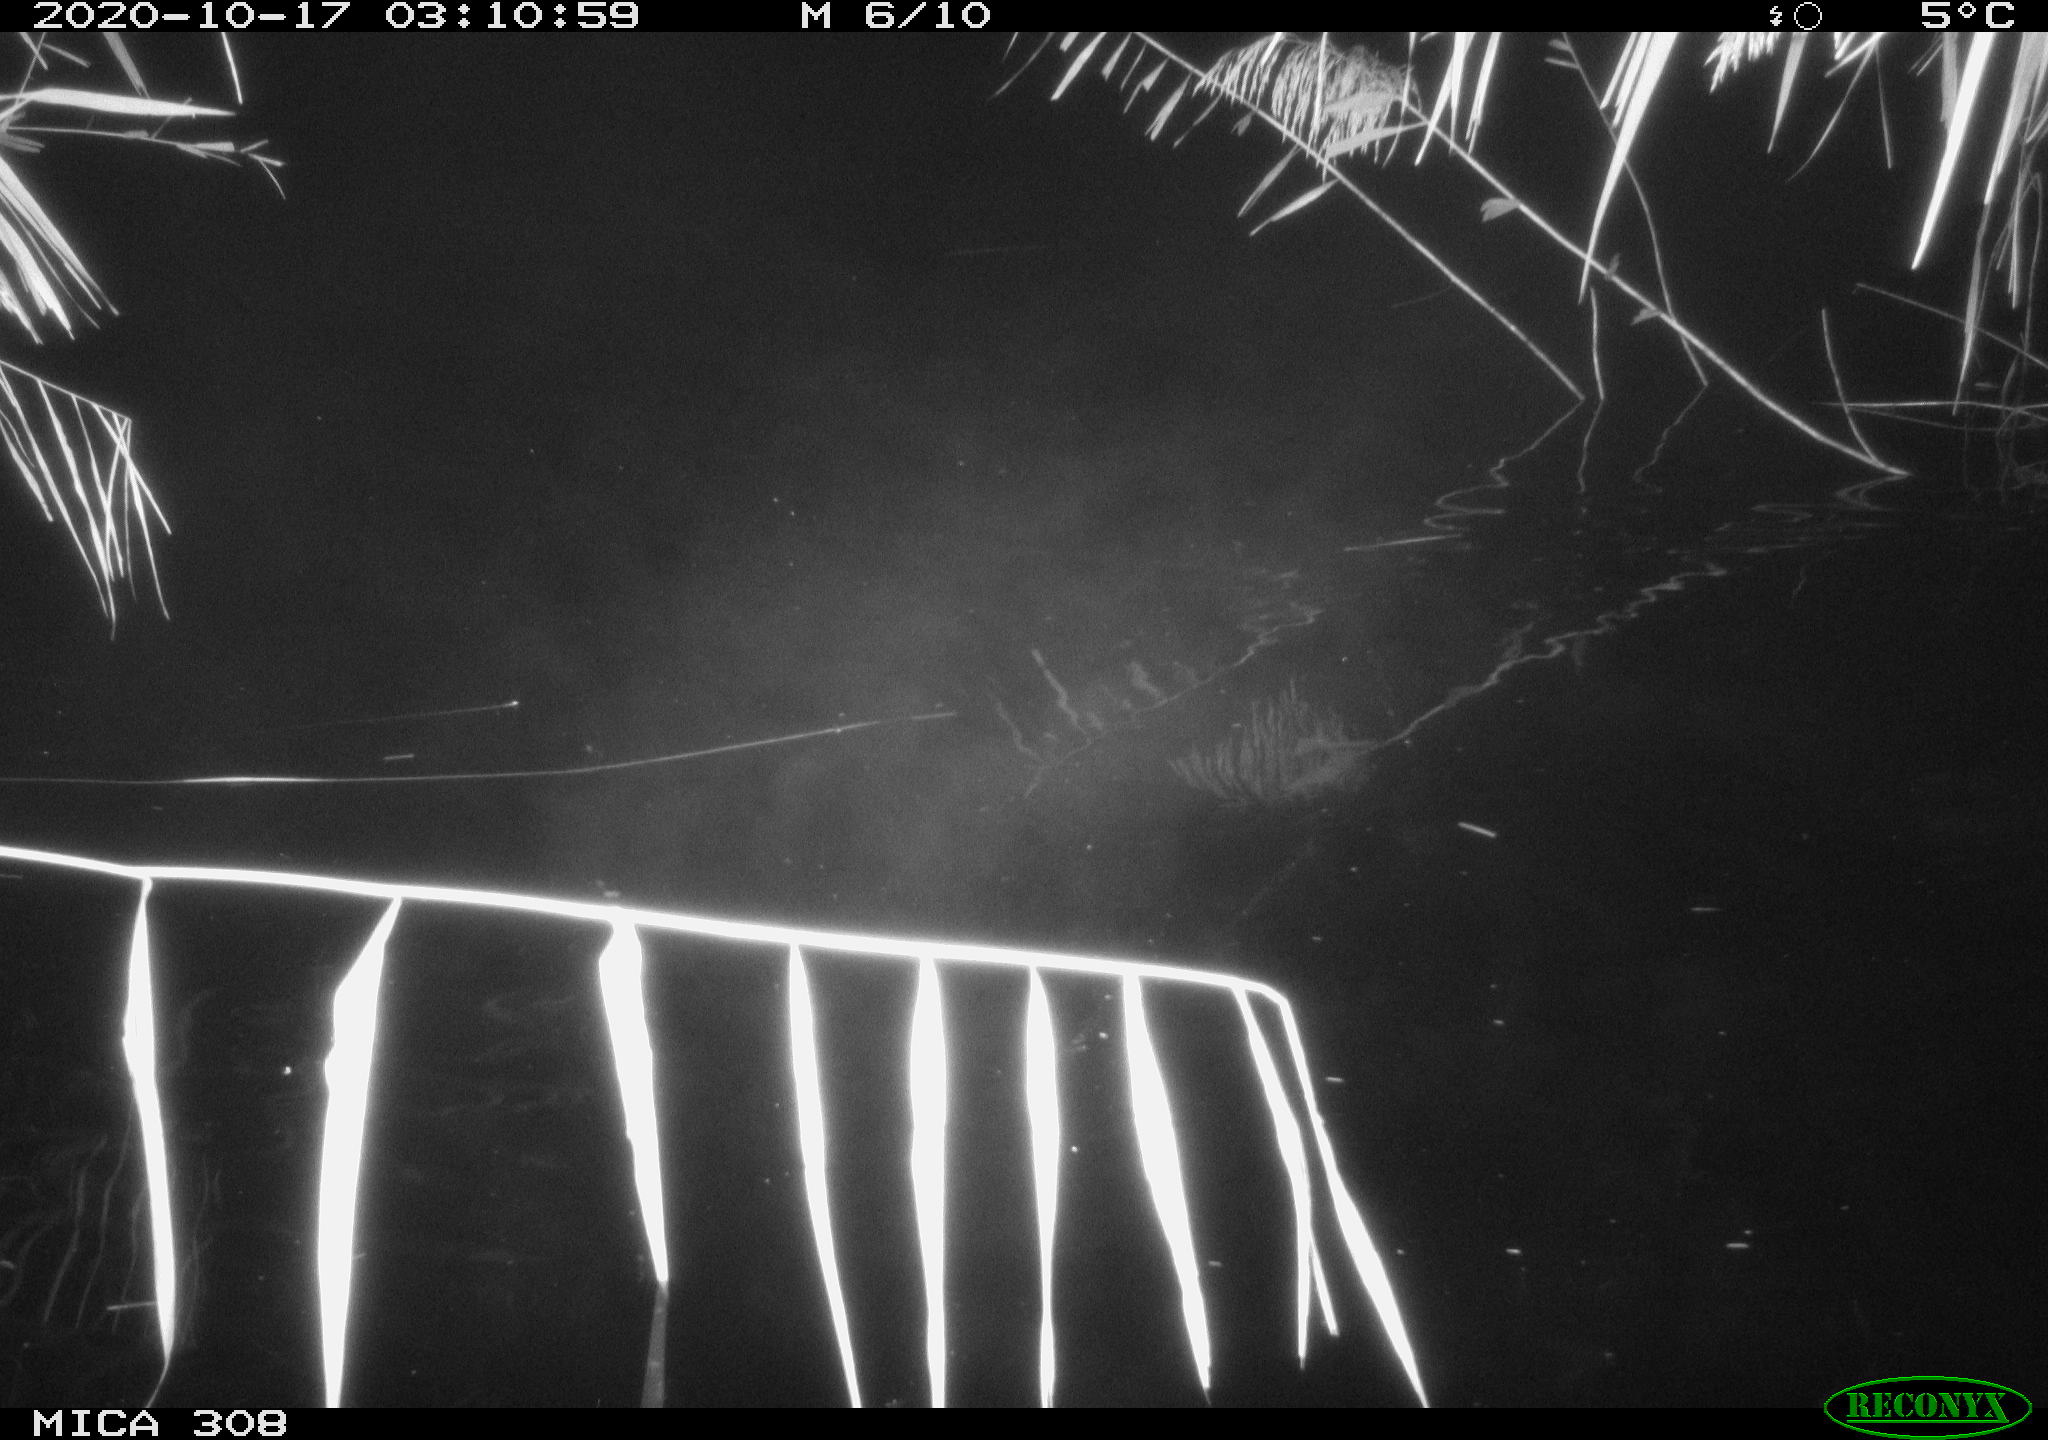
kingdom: Animalia
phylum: Chordata
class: Mammalia
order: Rodentia
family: Cricetidae
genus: Ondatra
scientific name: Ondatra zibethicus
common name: Muskrat
